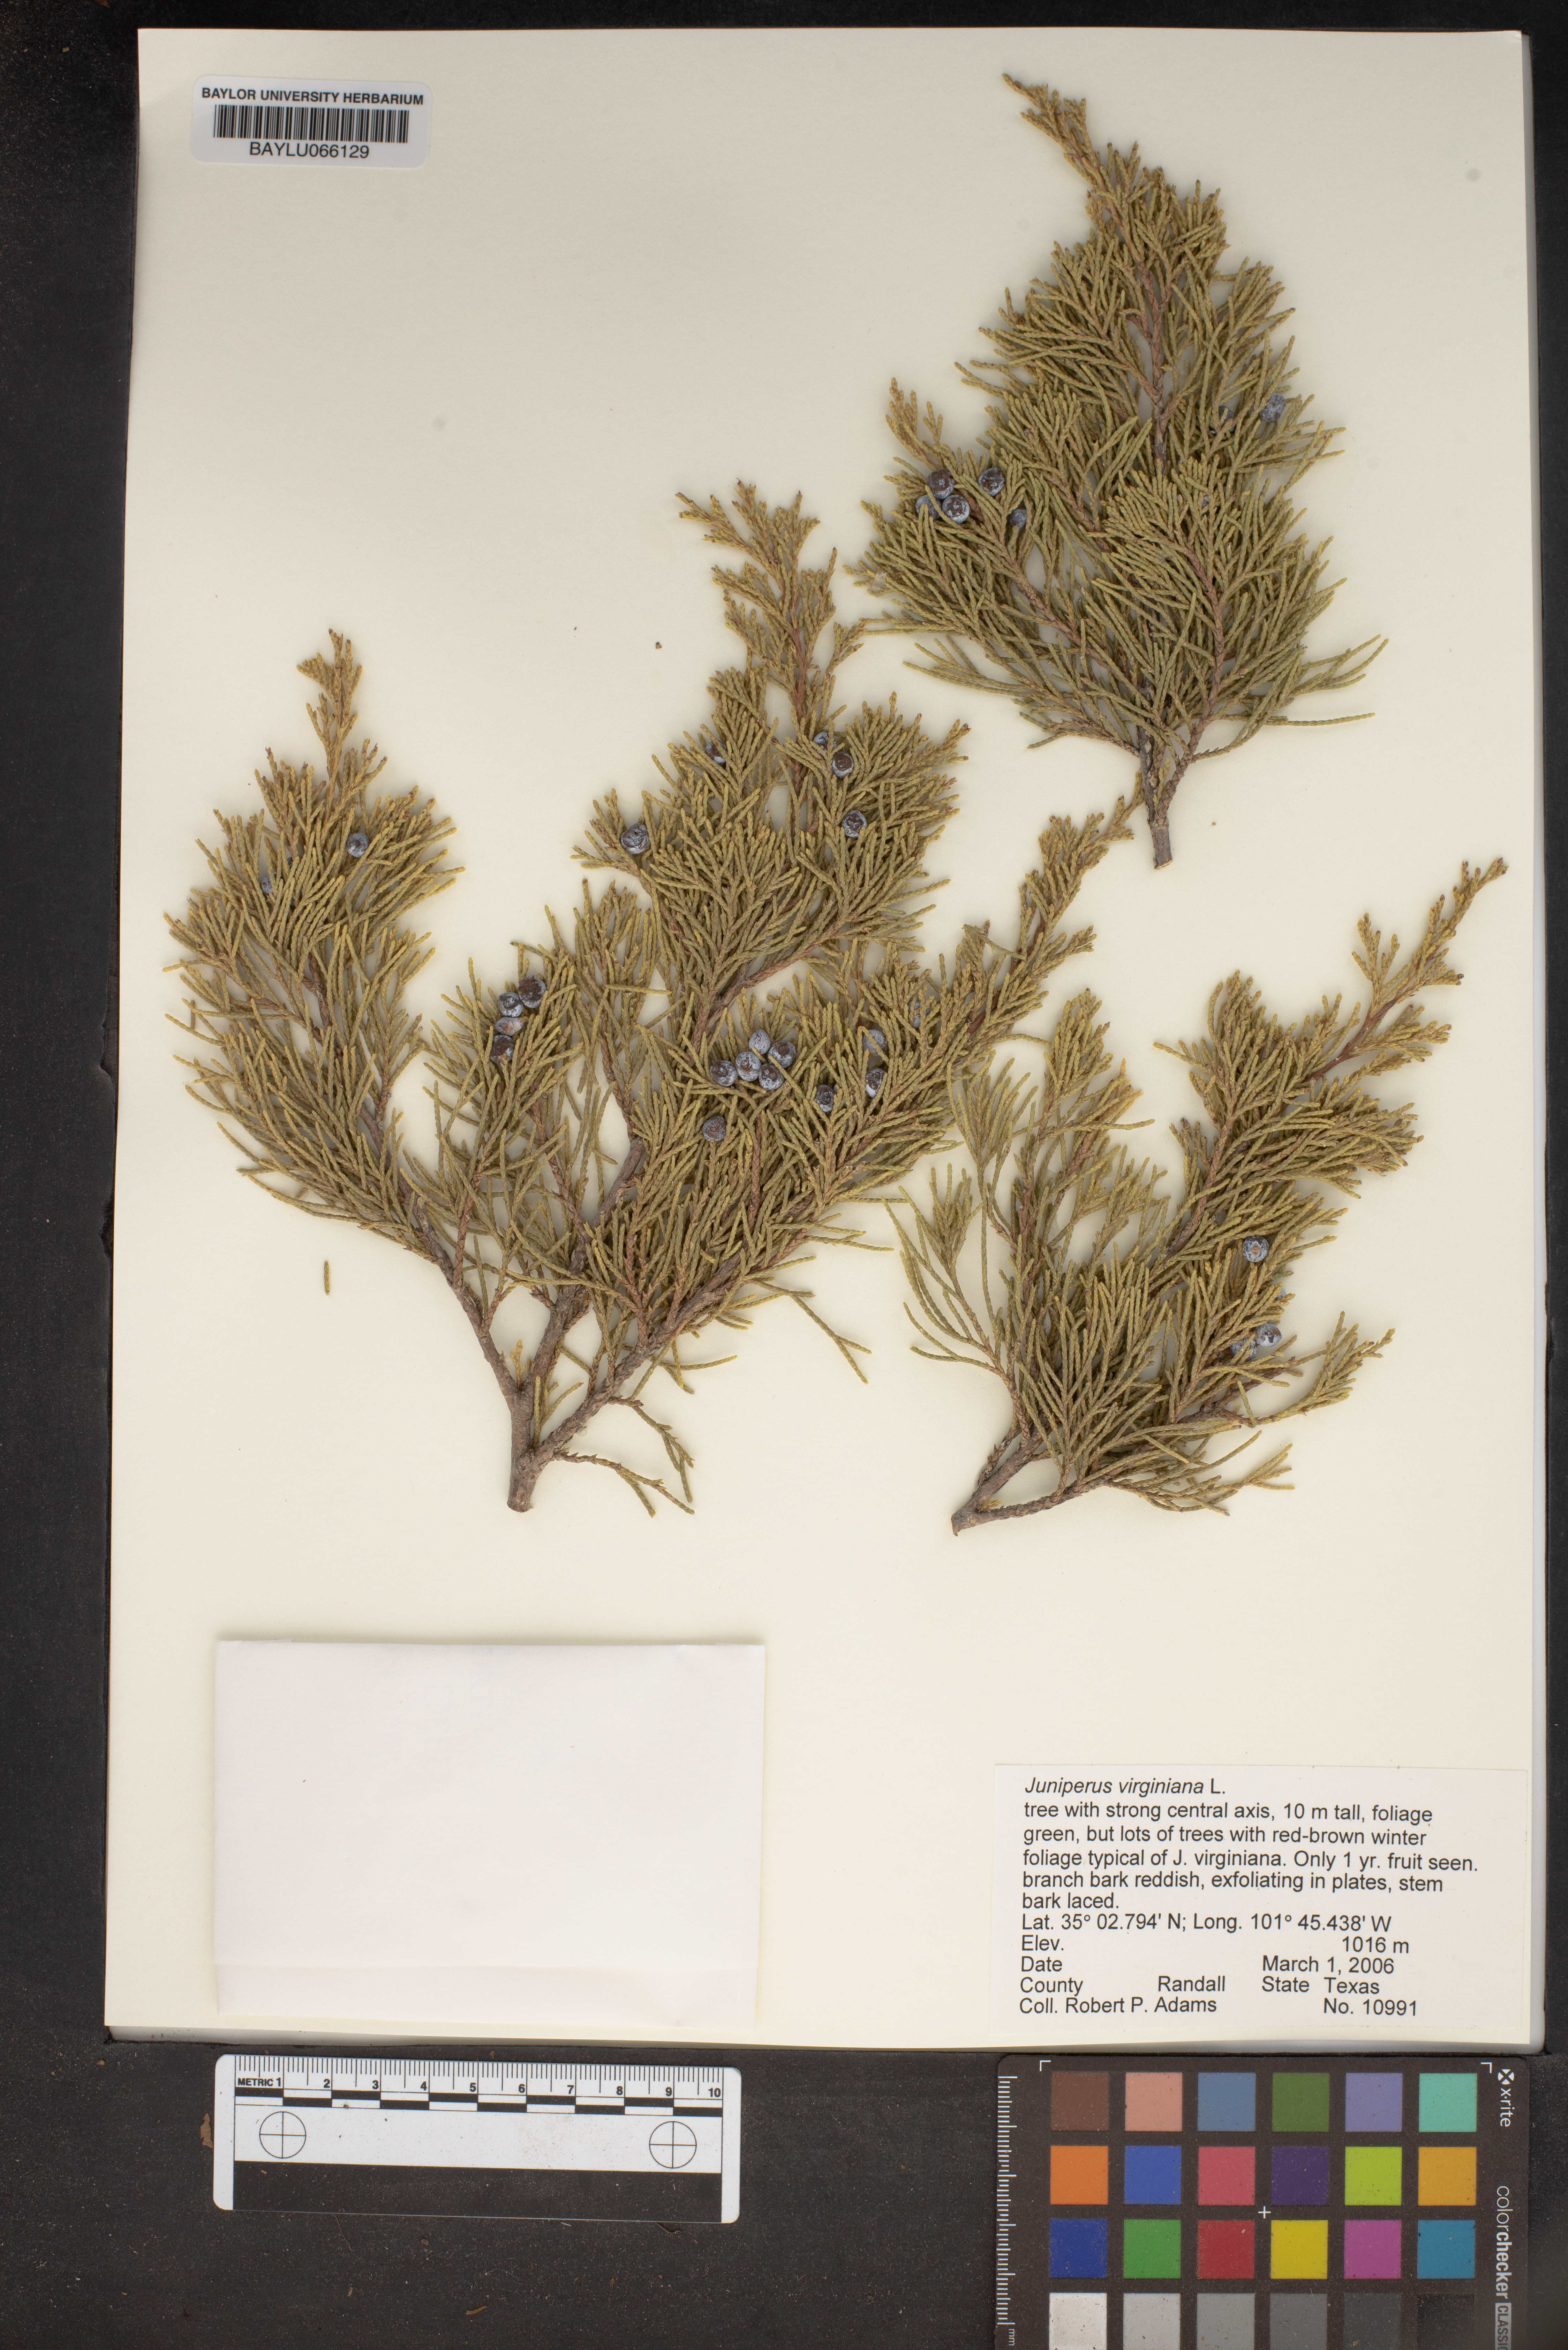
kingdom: Plantae
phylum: Tracheophyta
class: Pinopsida
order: Pinales
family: Cupressaceae
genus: Juniperus
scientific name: Juniperus virginiana
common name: Red juniper
